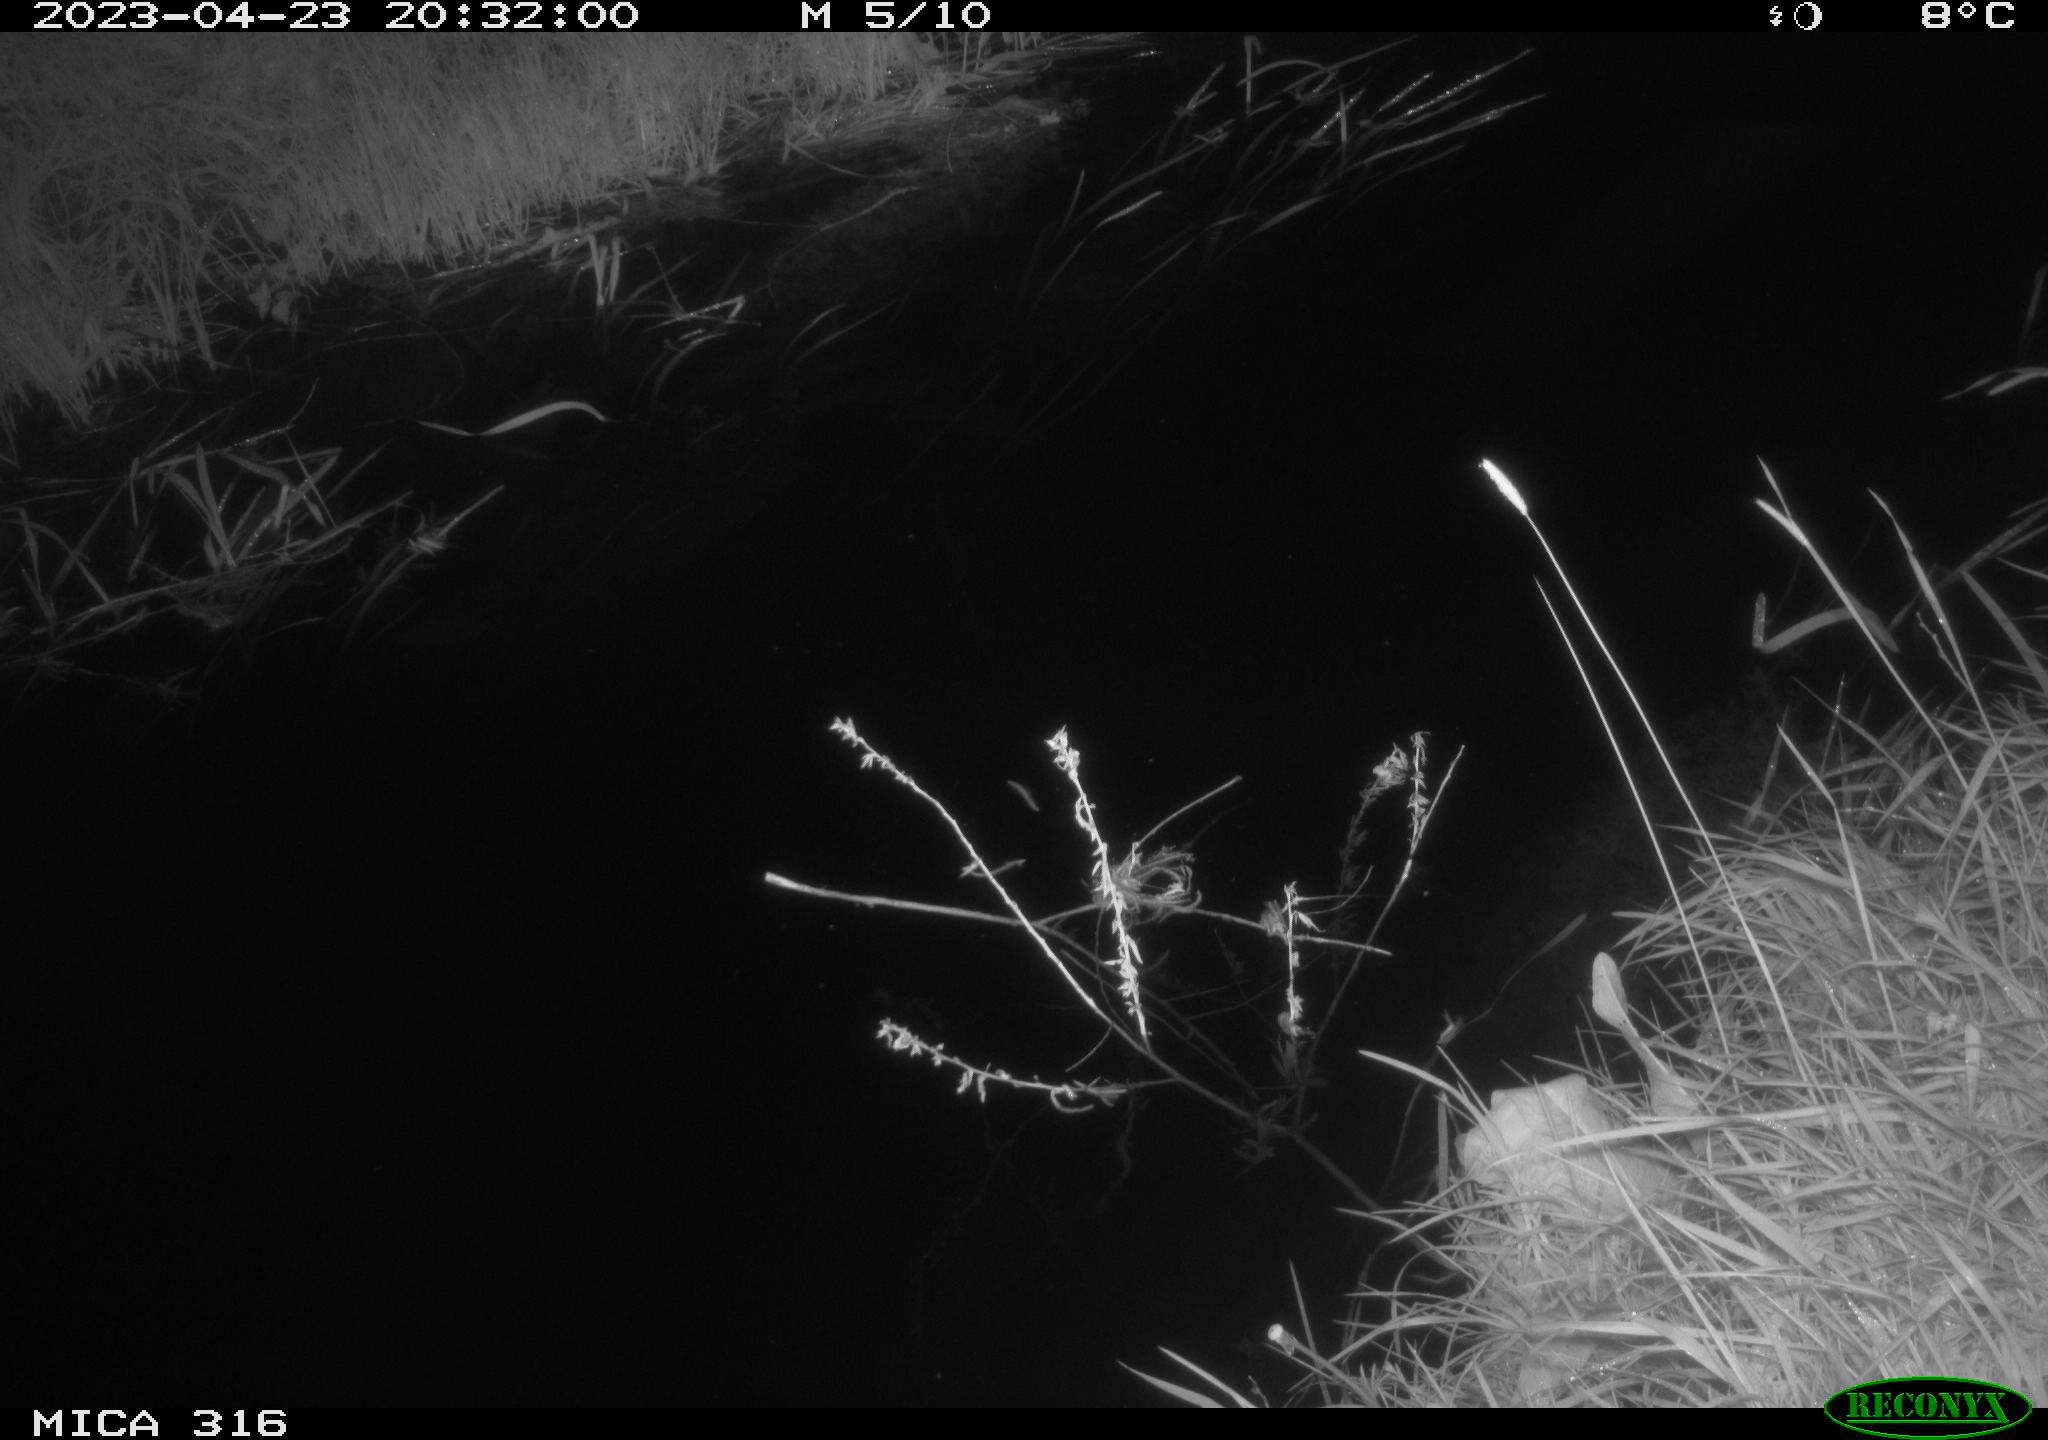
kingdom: Animalia
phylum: Chordata
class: Aves
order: Anseriformes
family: Anatidae
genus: Anas
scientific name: Anas
